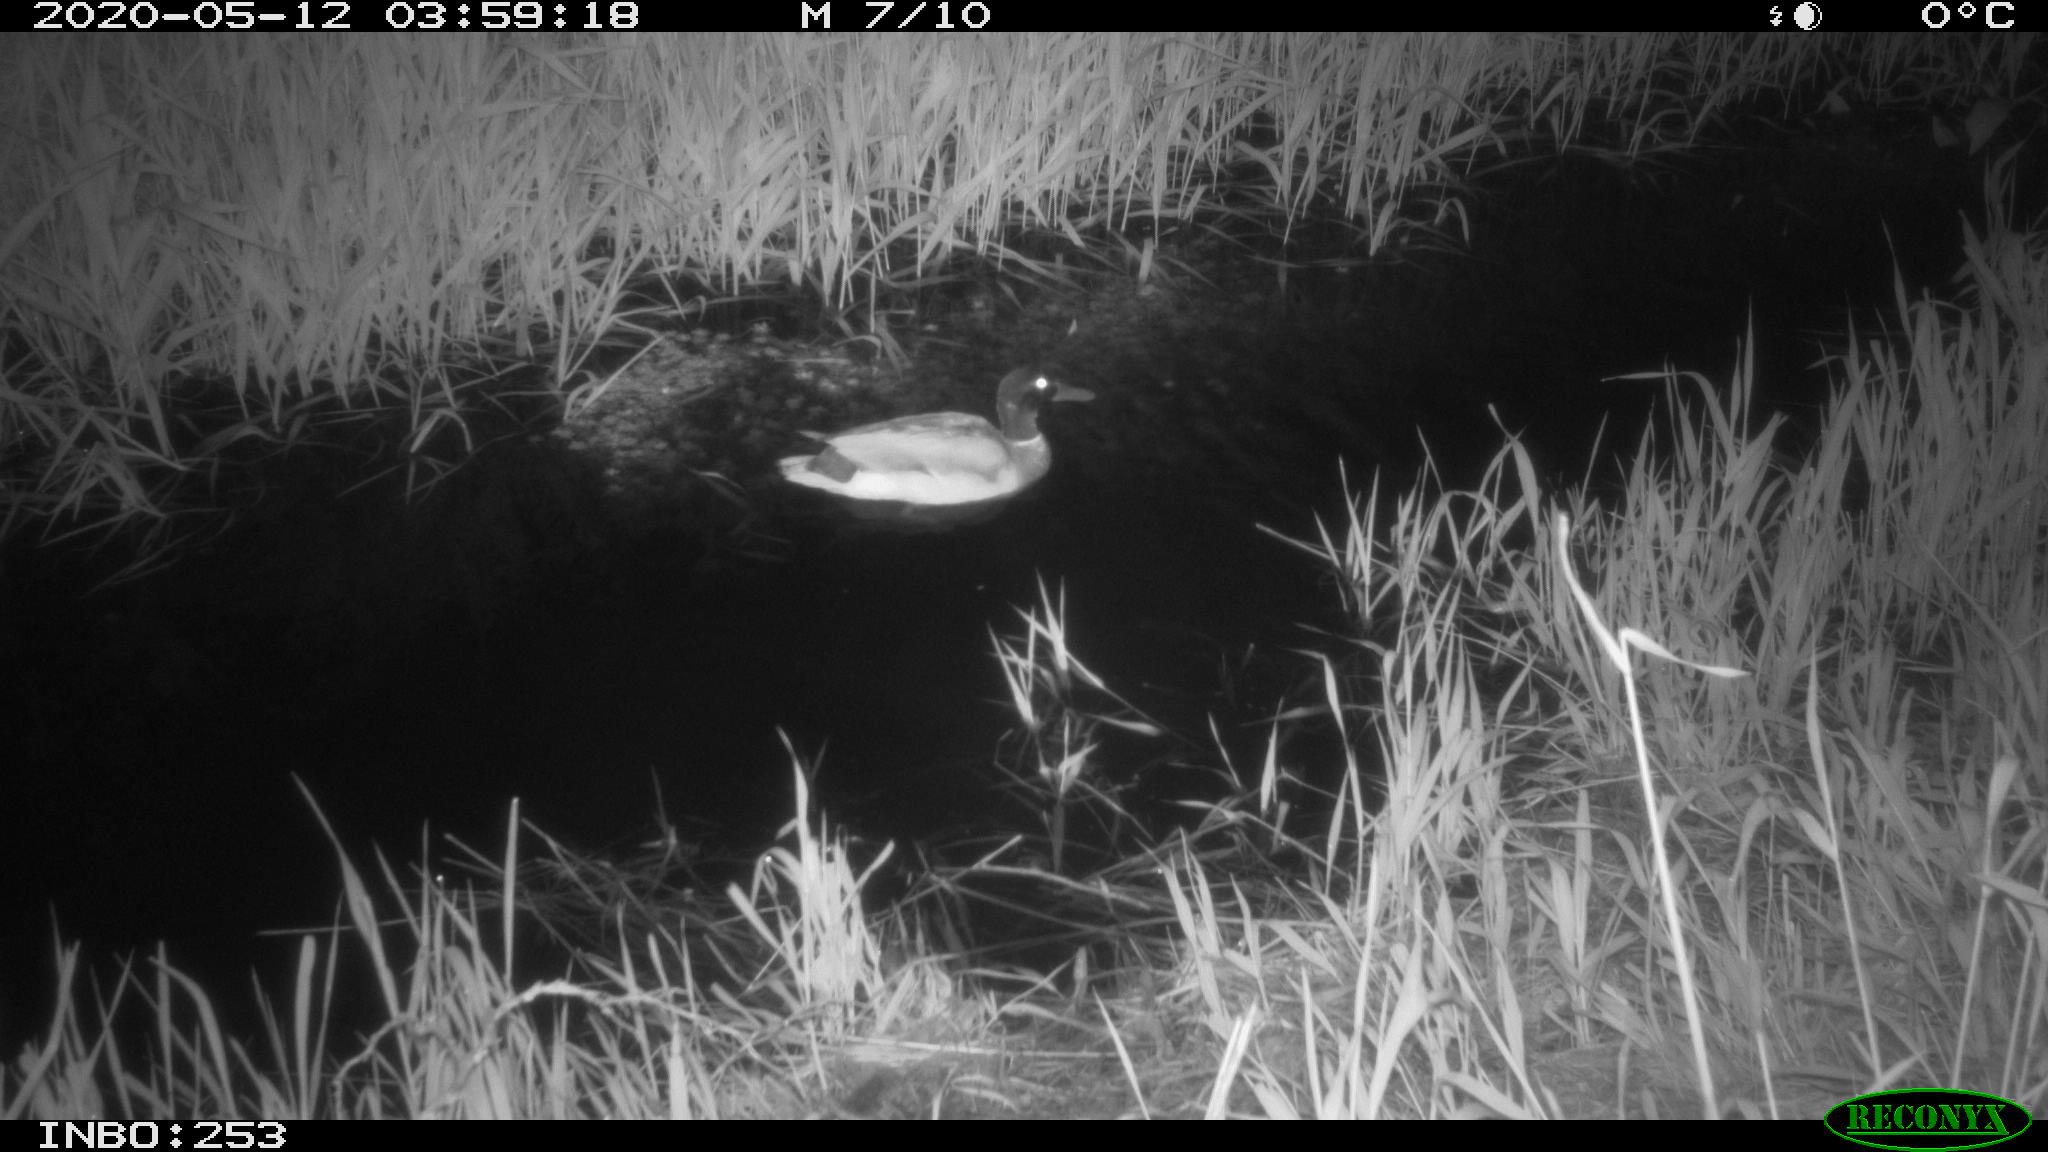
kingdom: Animalia
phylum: Chordata
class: Aves
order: Anseriformes
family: Anatidae
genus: Anas
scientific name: Anas platyrhynchos
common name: Mallard
